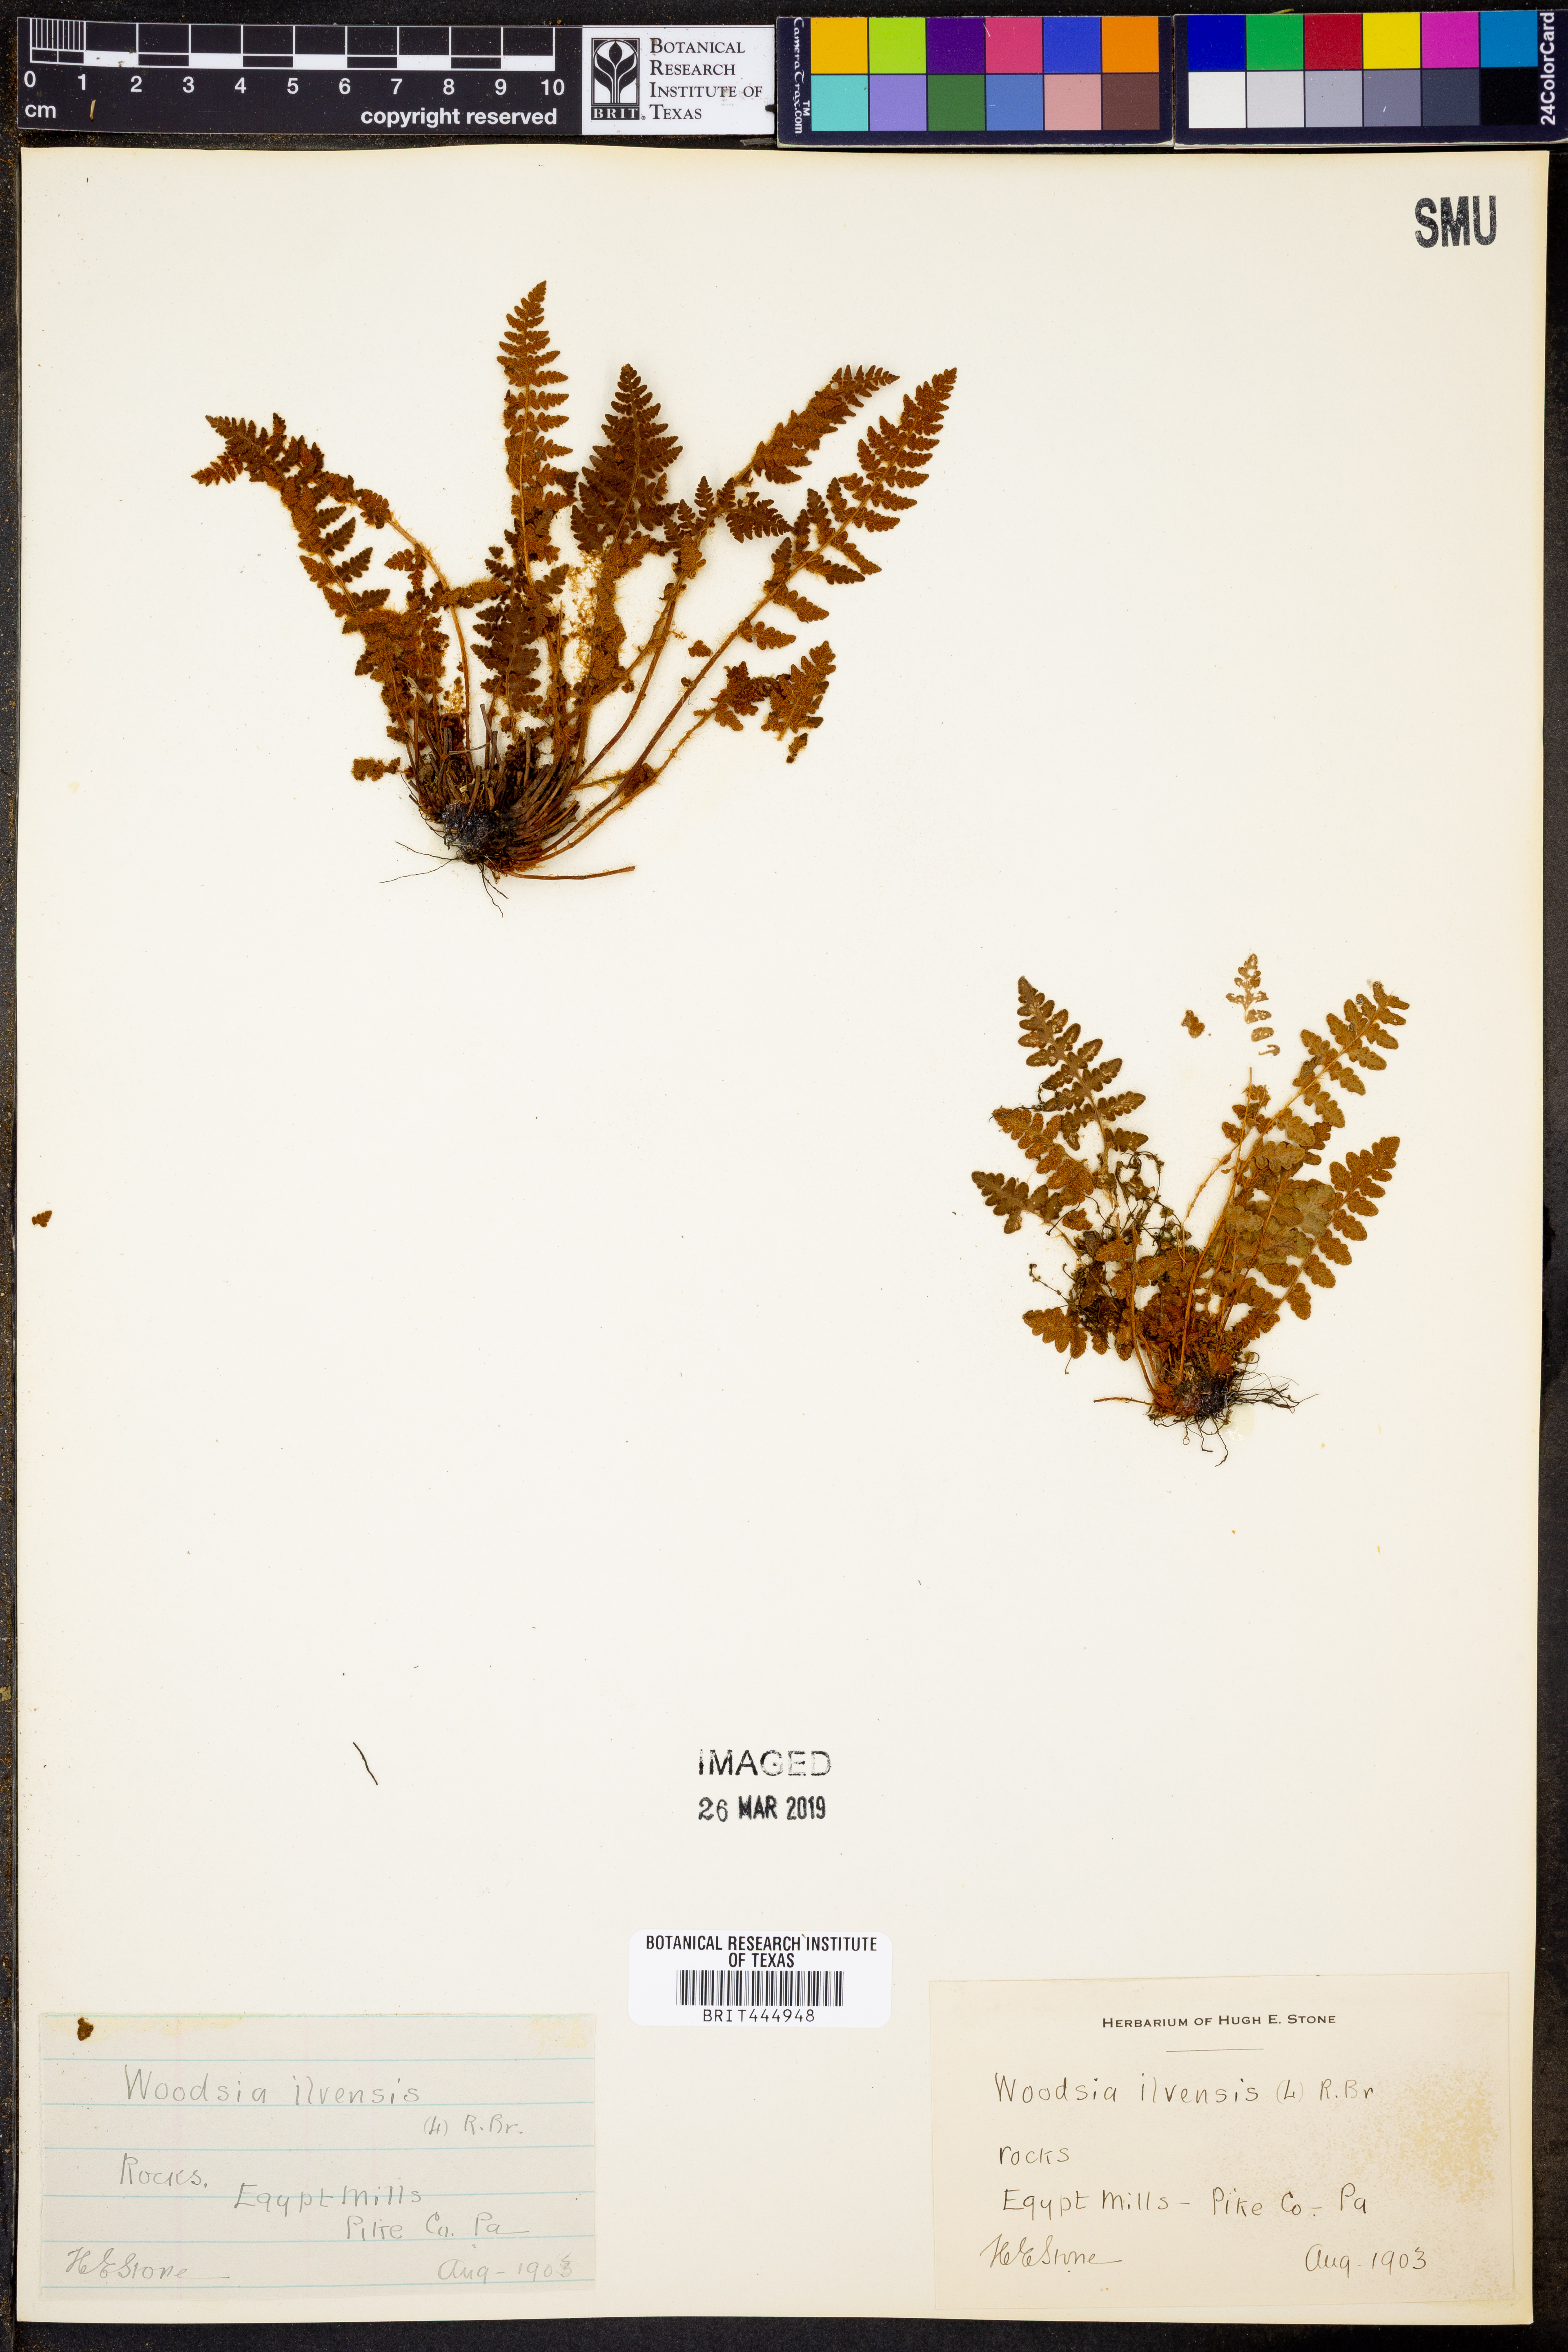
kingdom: Plantae
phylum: Tracheophyta
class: Polypodiopsida
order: Polypodiales
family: Woodsiaceae
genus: Woodsia
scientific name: Woodsia ilvensis
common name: Fragrant woodsia
